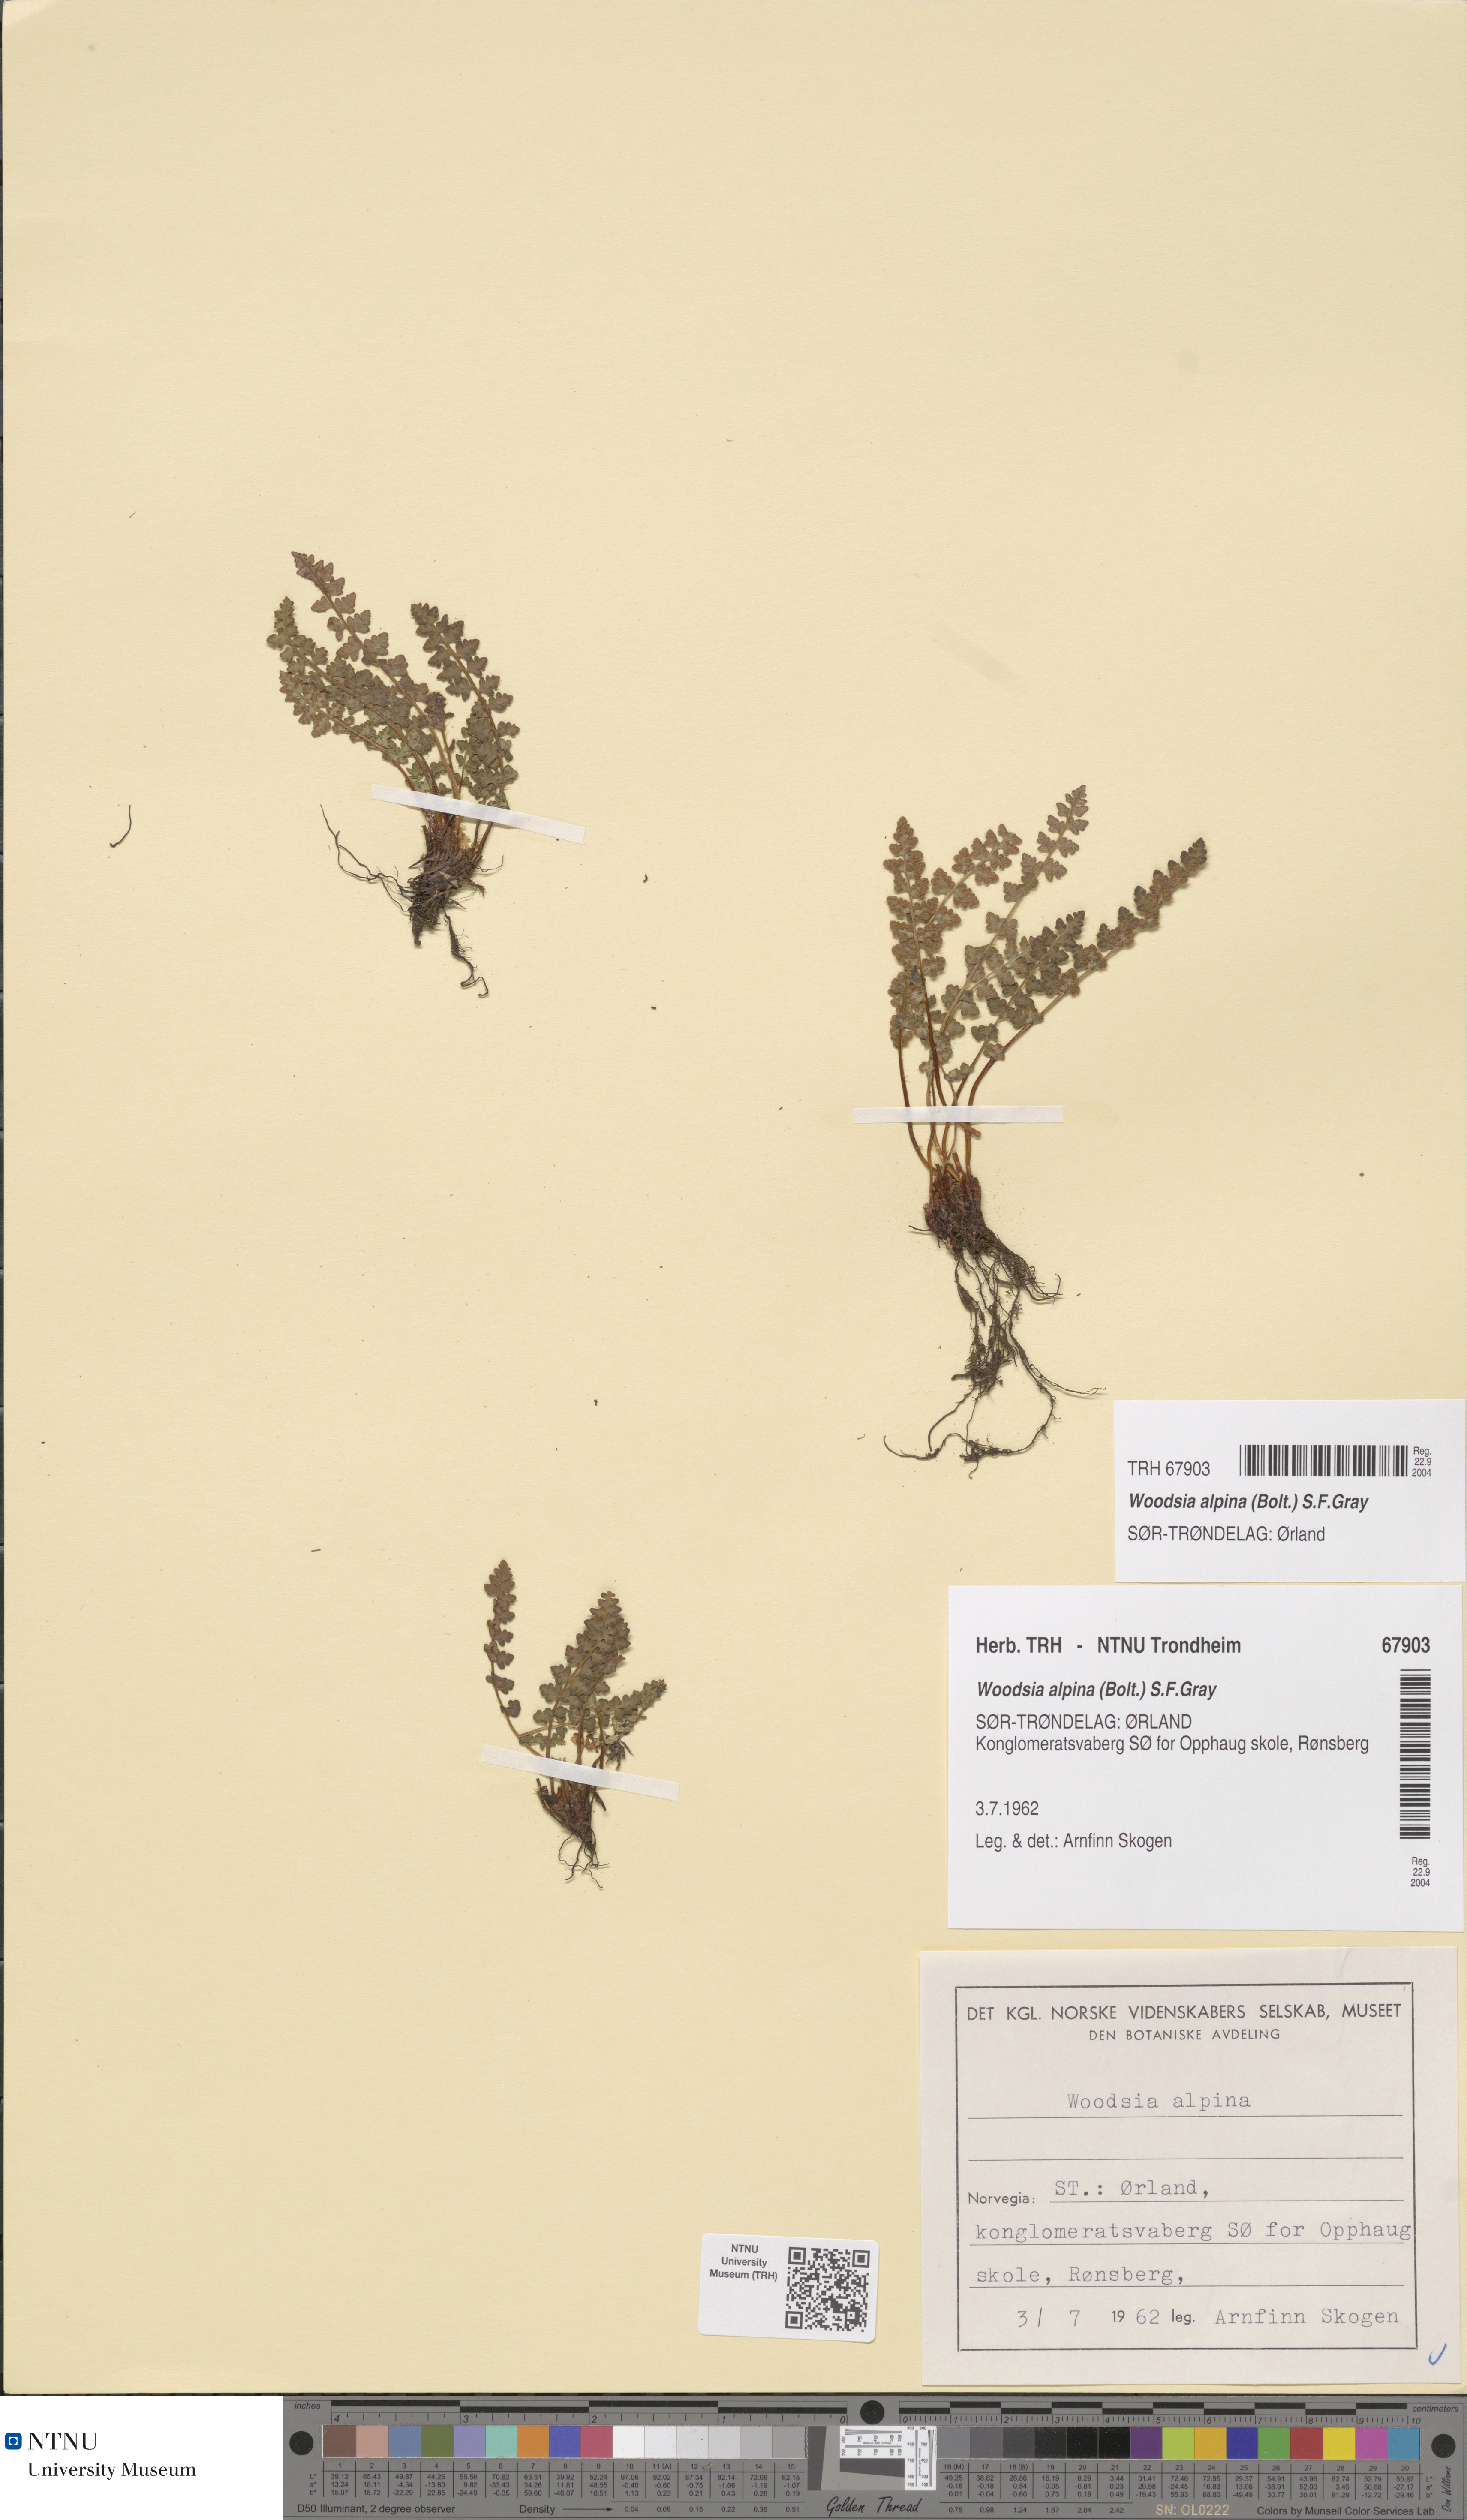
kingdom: Plantae
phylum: Tracheophyta
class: Polypodiopsida
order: Polypodiales
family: Woodsiaceae
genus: Woodsia
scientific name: Woodsia alpina
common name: Alpine woodsia
